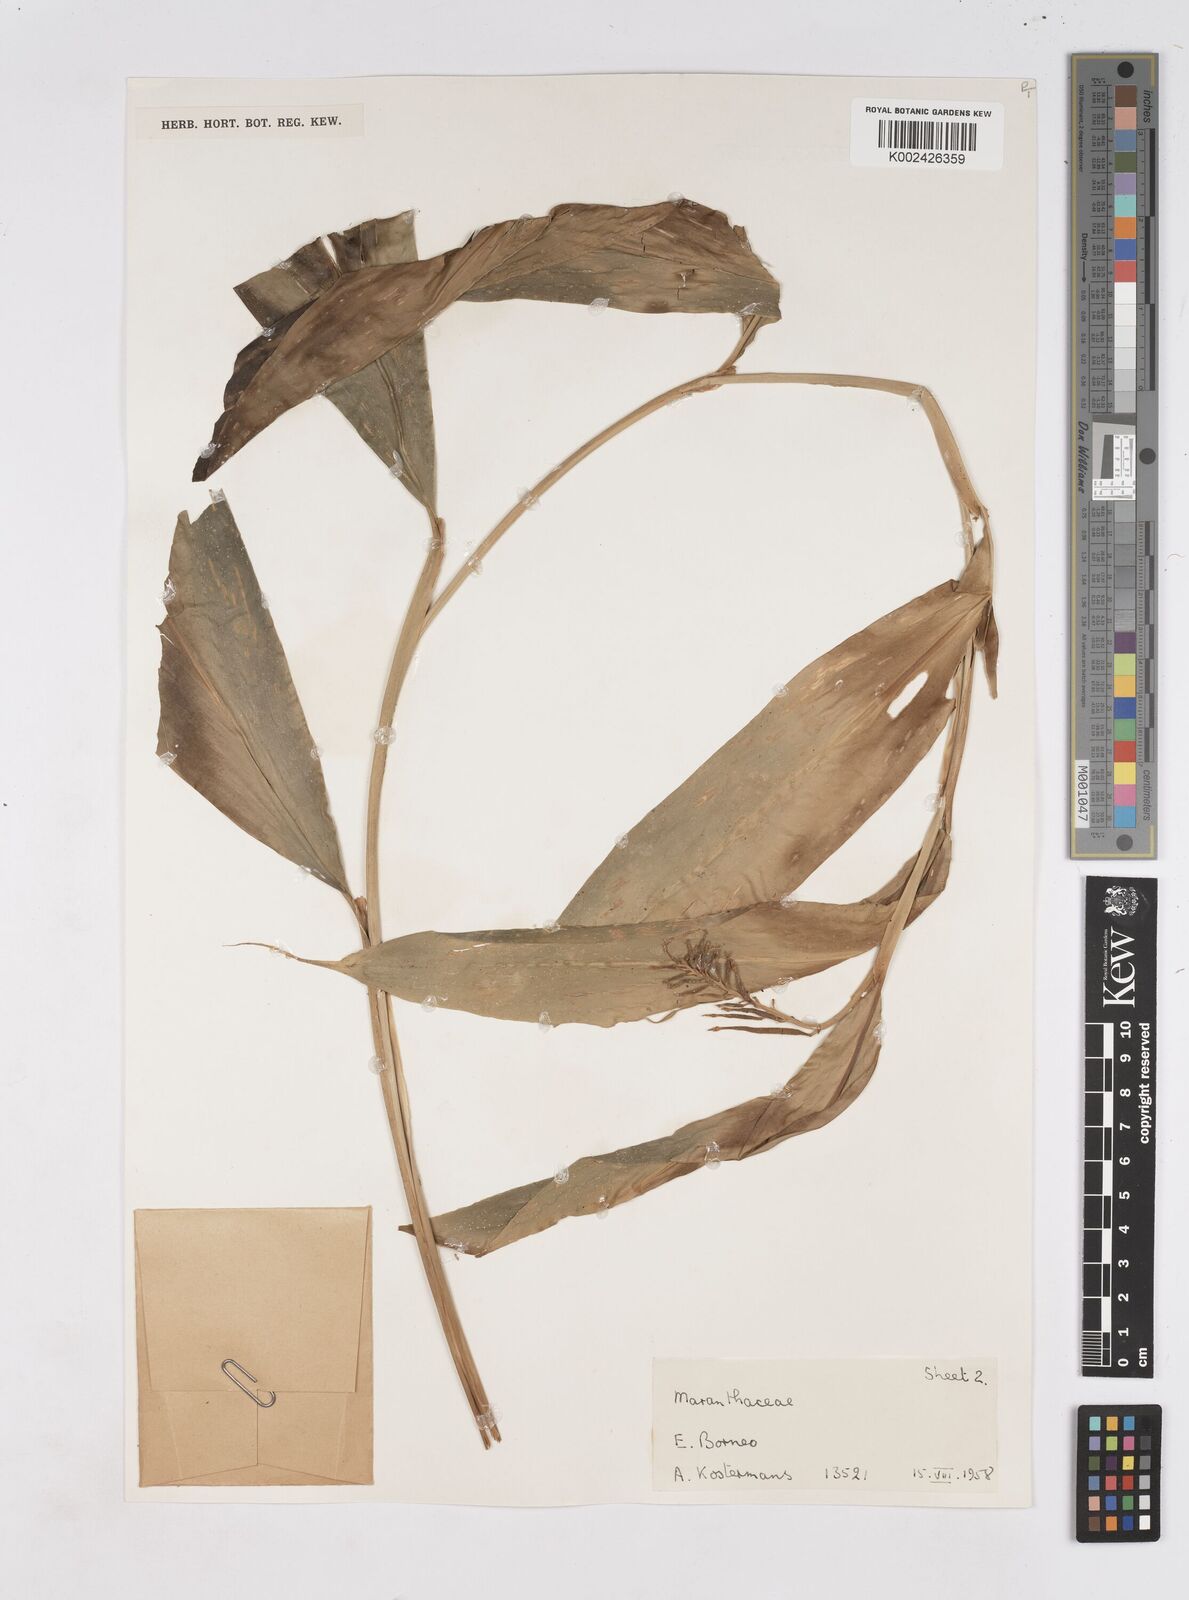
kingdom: Plantae
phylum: Tracheophyta
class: Liliopsida
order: Zingiberales
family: Zingiberaceae
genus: Burbidgea
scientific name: Burbidgea
